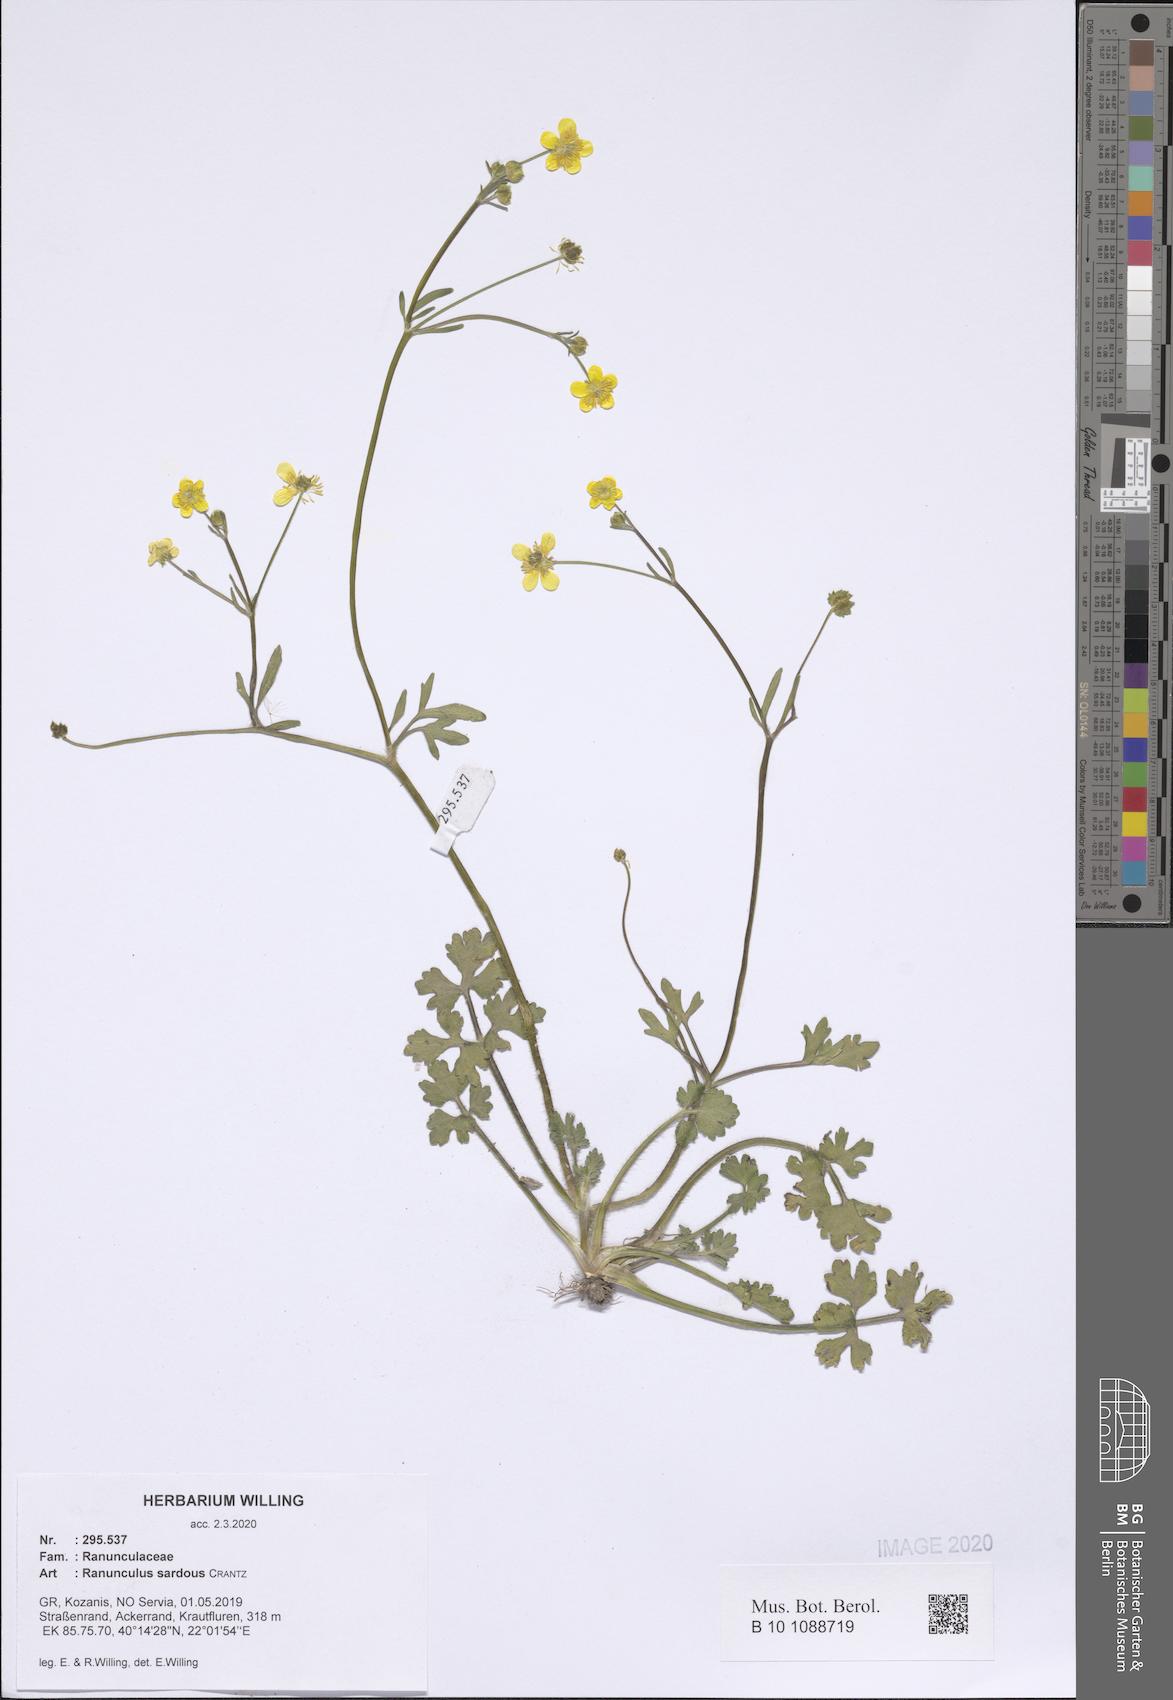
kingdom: Plantae
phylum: Tracheophyta
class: Magnoliopsida
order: Ranunculales
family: Ranunculaceae
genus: Ranunculus
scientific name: Ranunculus sardous
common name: Hairy buttercup
